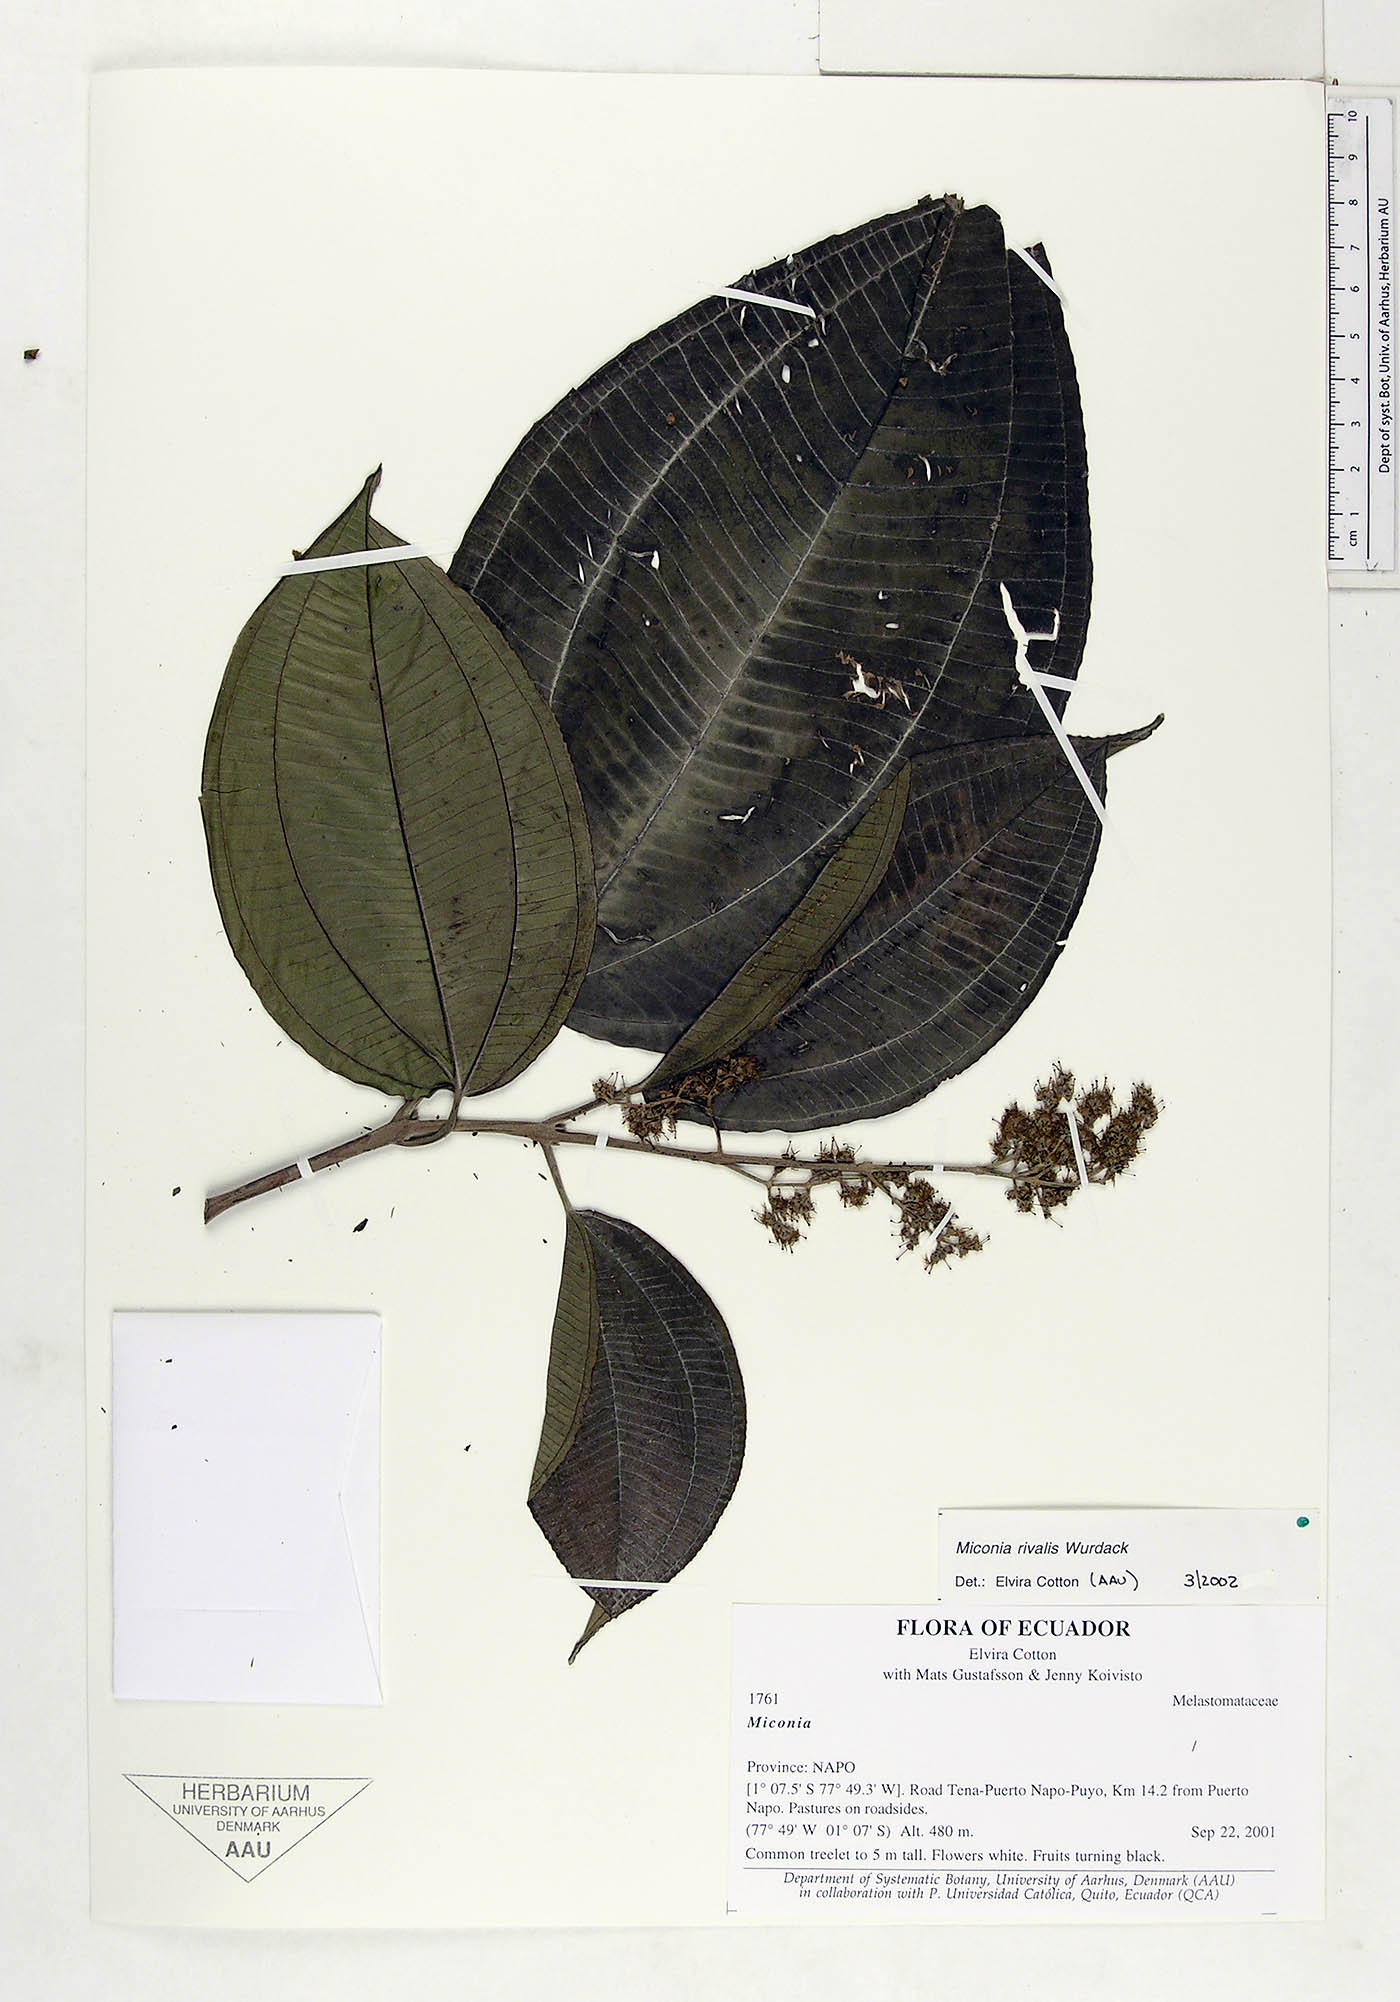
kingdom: Plantae
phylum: Tracheophyta
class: Magnoliopsida
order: Myrtales
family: Melastomataceae
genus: Miconia
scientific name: Miconia rivalis
